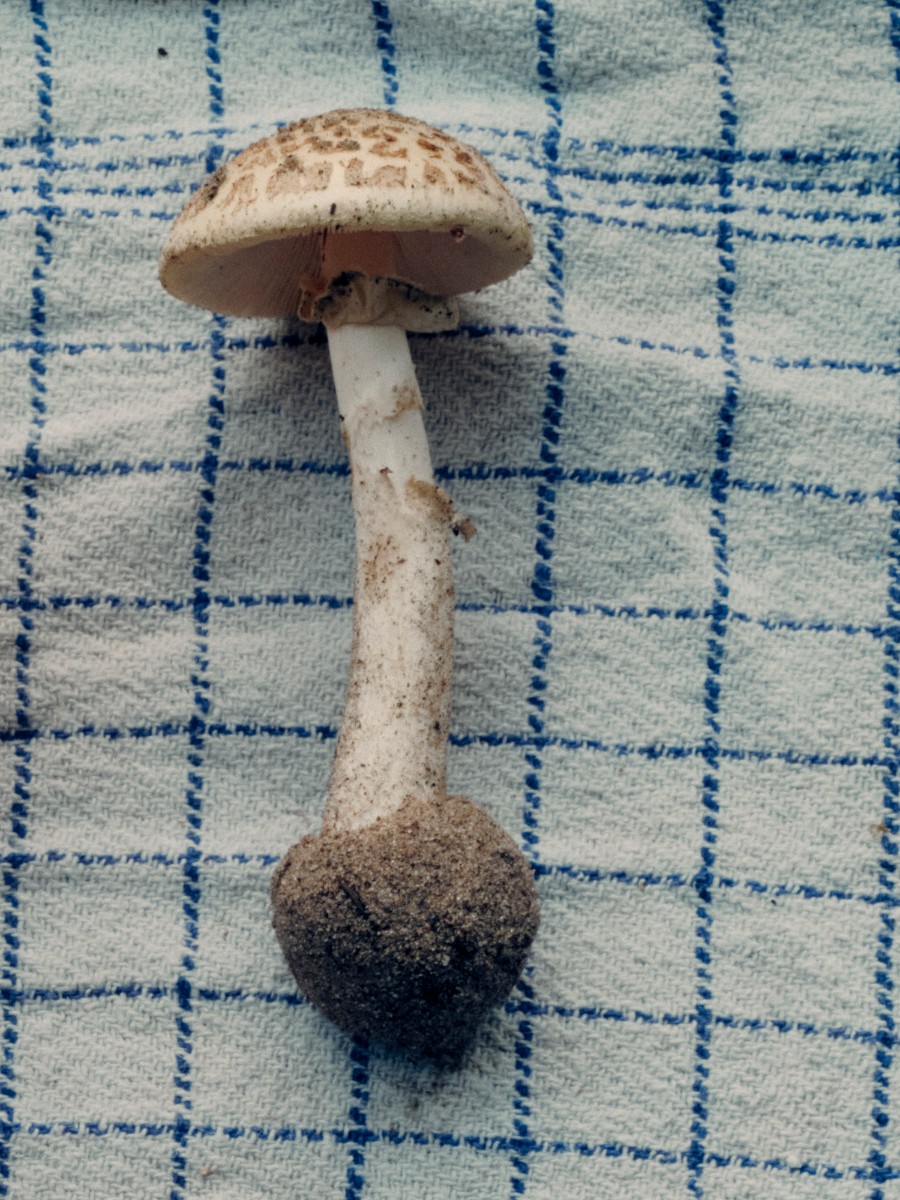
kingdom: Fungi
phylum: Basidiomycota
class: Agaricomycetes
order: Agaricales
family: Amanitaceae
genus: Amanita
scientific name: Amanita citrina
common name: False death-cap
